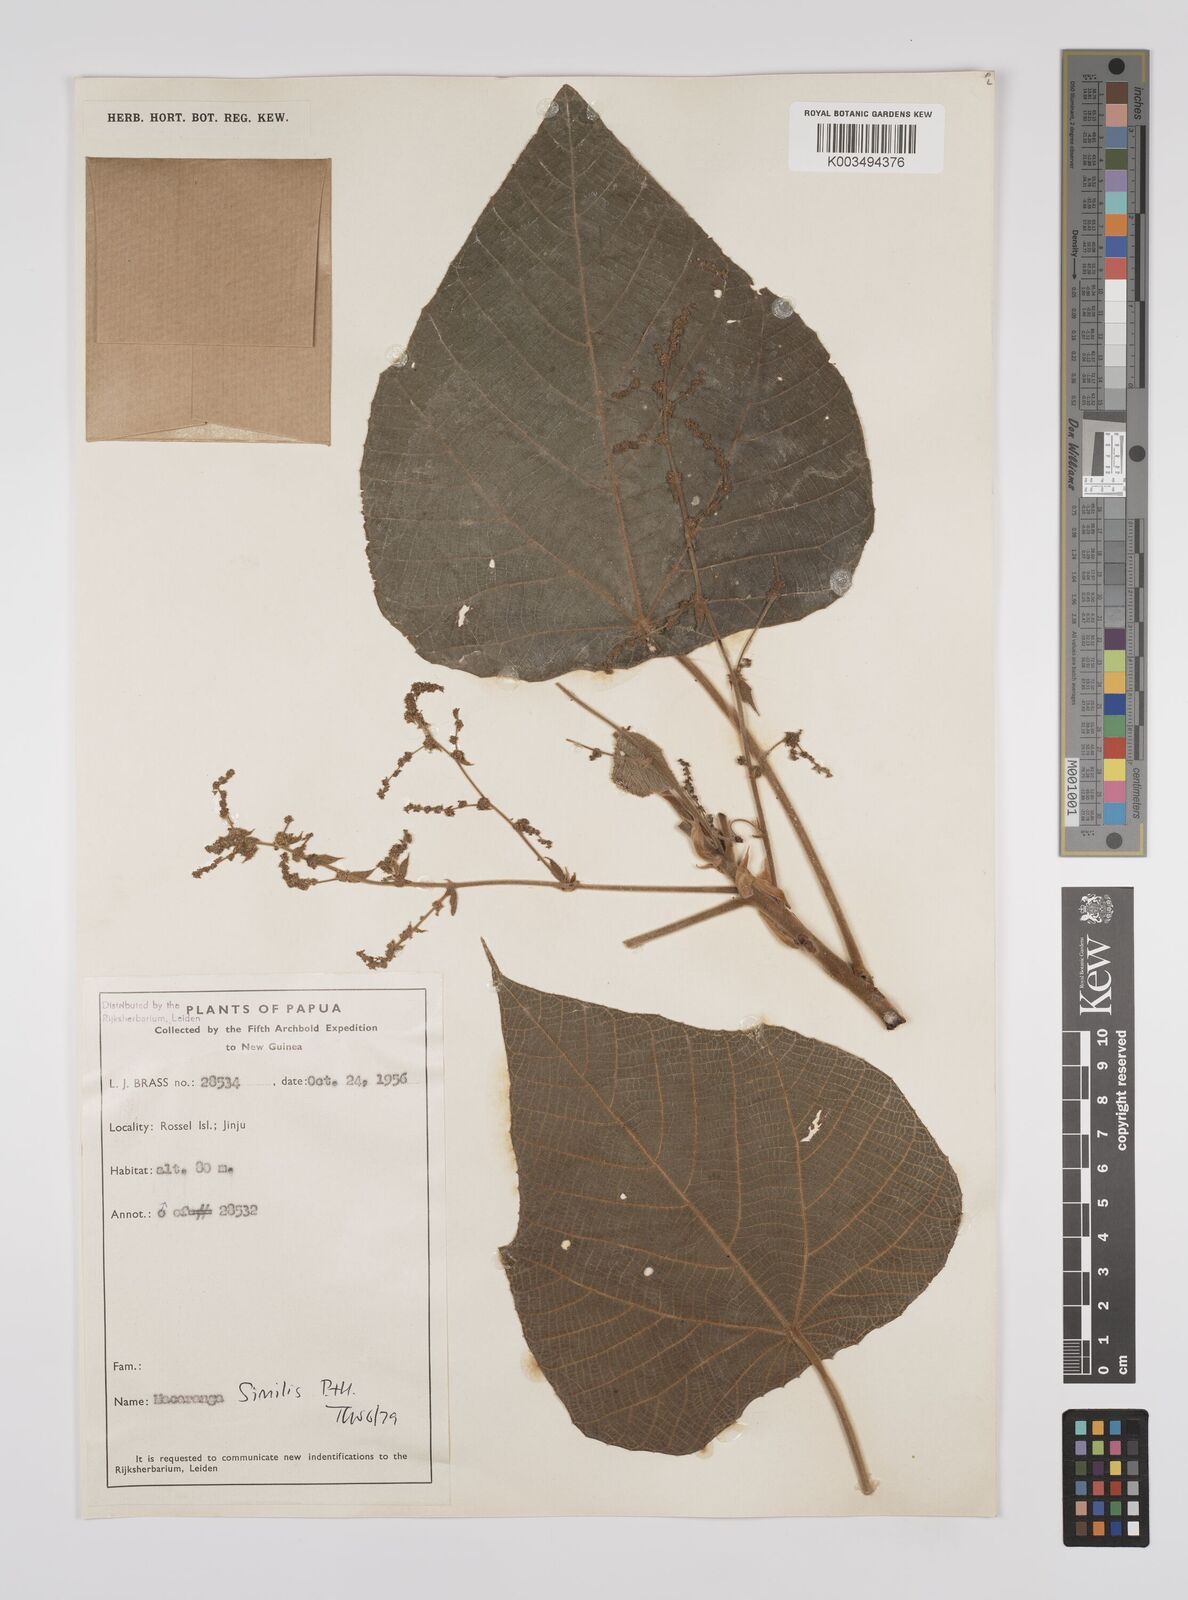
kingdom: Plantae
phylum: Tracheophyta
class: Magnoliopsida
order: Malpighiales
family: Euphorbiaceae
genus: Macaranga
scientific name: Macaranga similis
